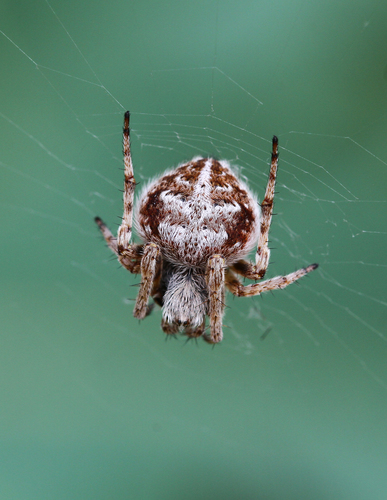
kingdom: Animalia
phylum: Arthropoda
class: Arachnida
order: Araneae
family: Araneidae
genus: Agalenatea
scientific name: Agalenatea redii
